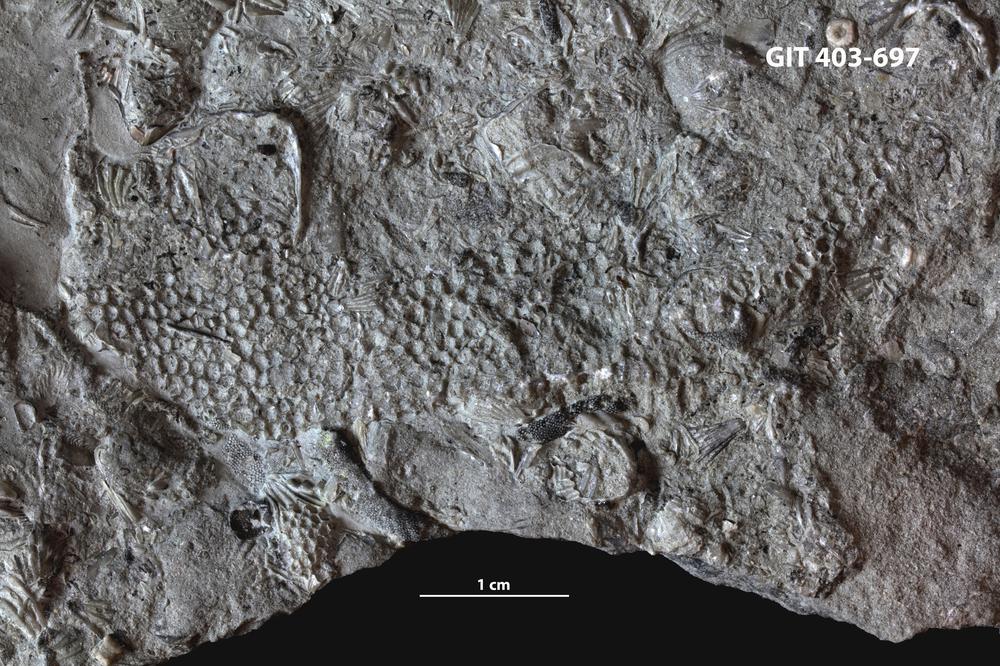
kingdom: Animalia
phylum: Cnidaria
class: Anthozoa
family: Favositidae
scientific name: Favositidae
